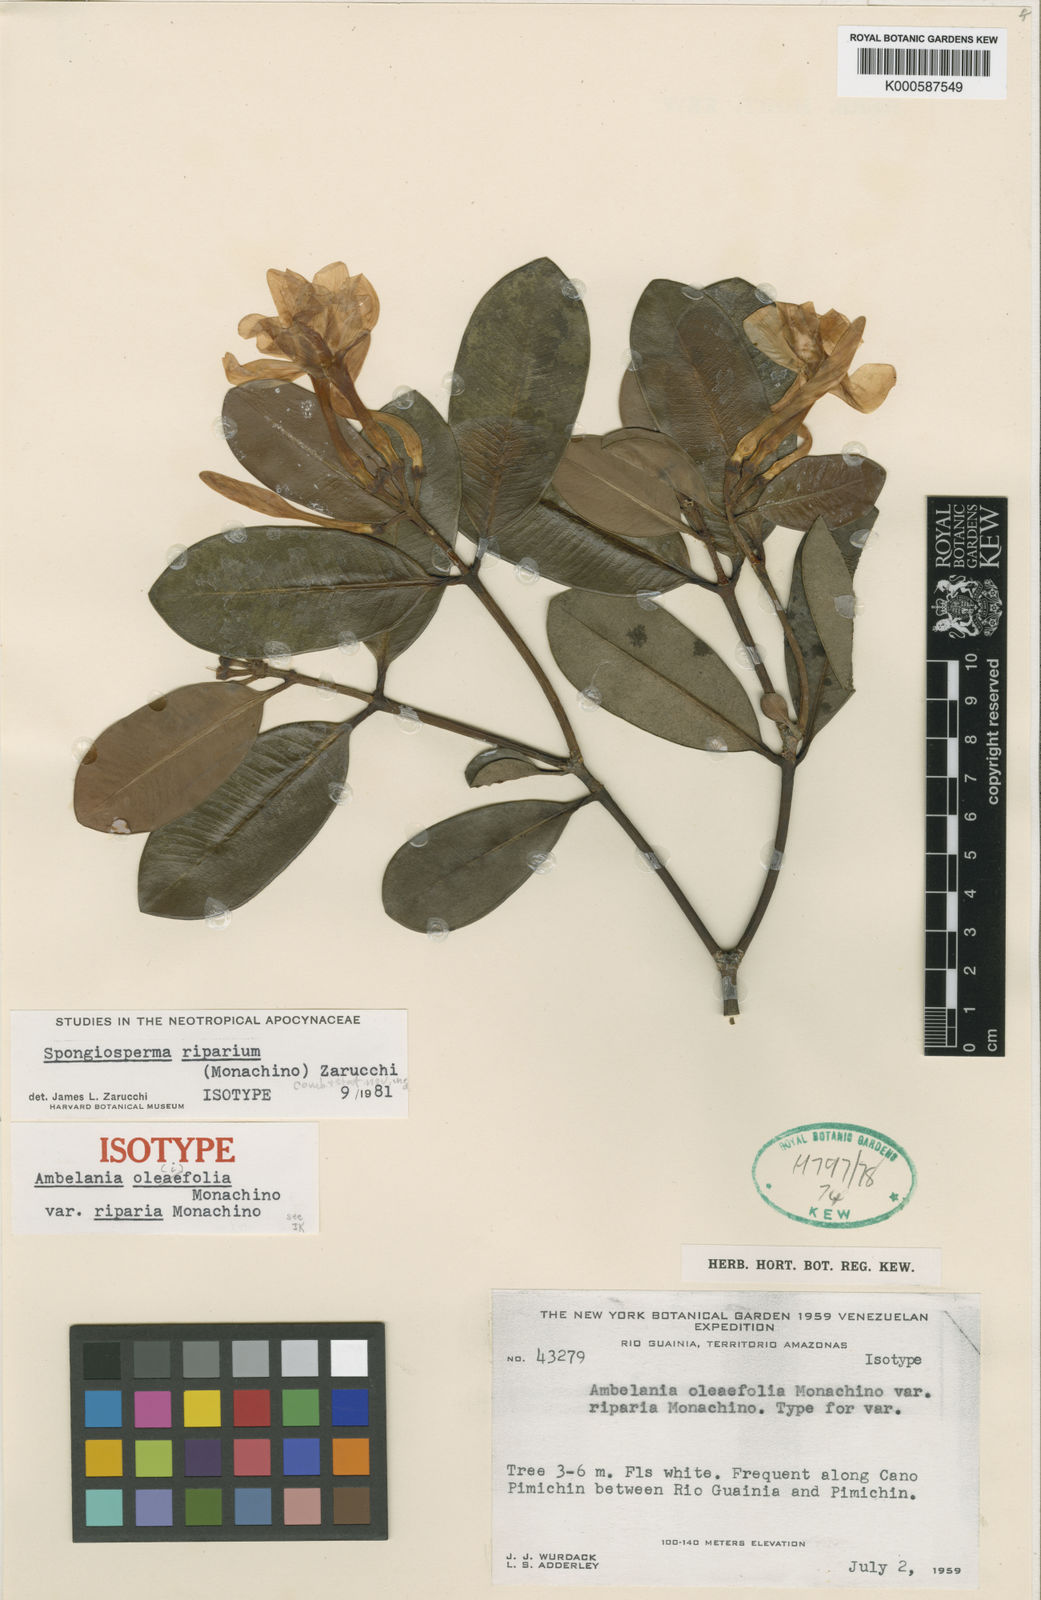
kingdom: Plantae
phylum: Tracheophyta
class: Magnoliopsida
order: Gentianales
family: Apocynaceae
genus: Spongiosperma
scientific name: Spongiosperma riparium
